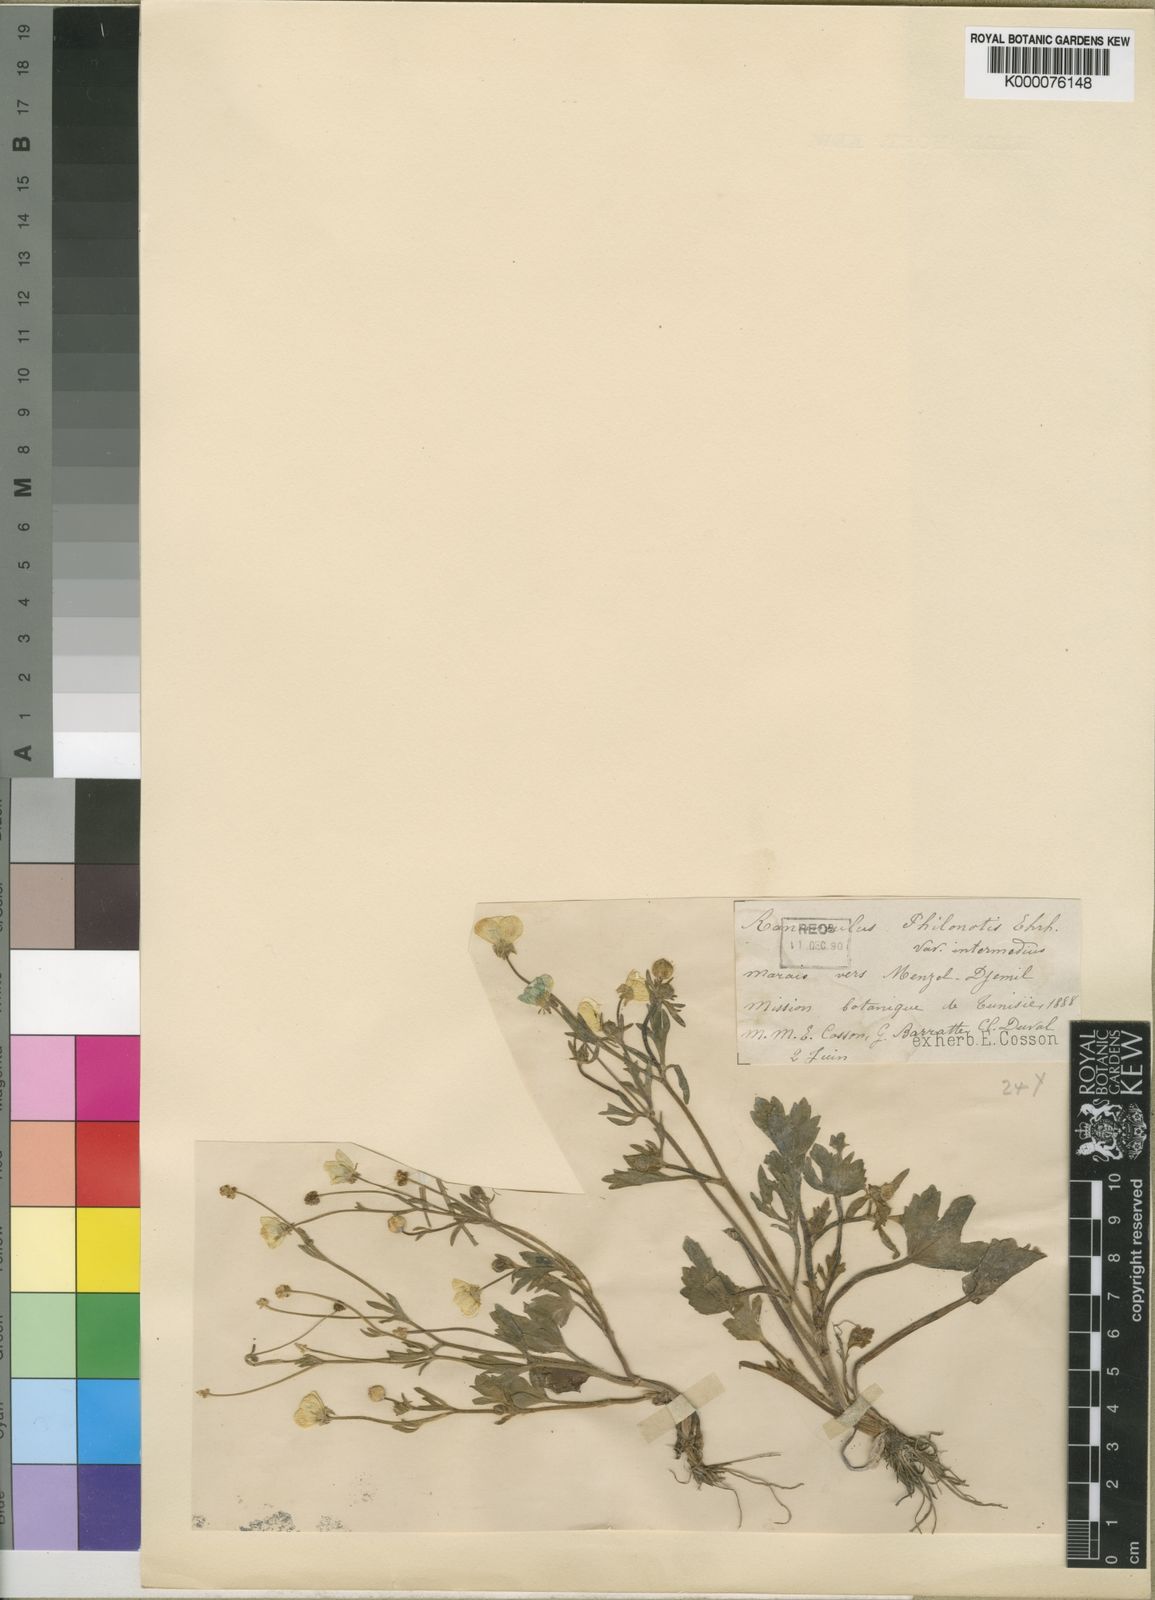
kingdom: Plantae
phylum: Tracheophyta
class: Magnoliopsida
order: Ranunculales
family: Ranunculaceae
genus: Ranunculus
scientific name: Ranunculus sardous
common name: Hairy buttercup
